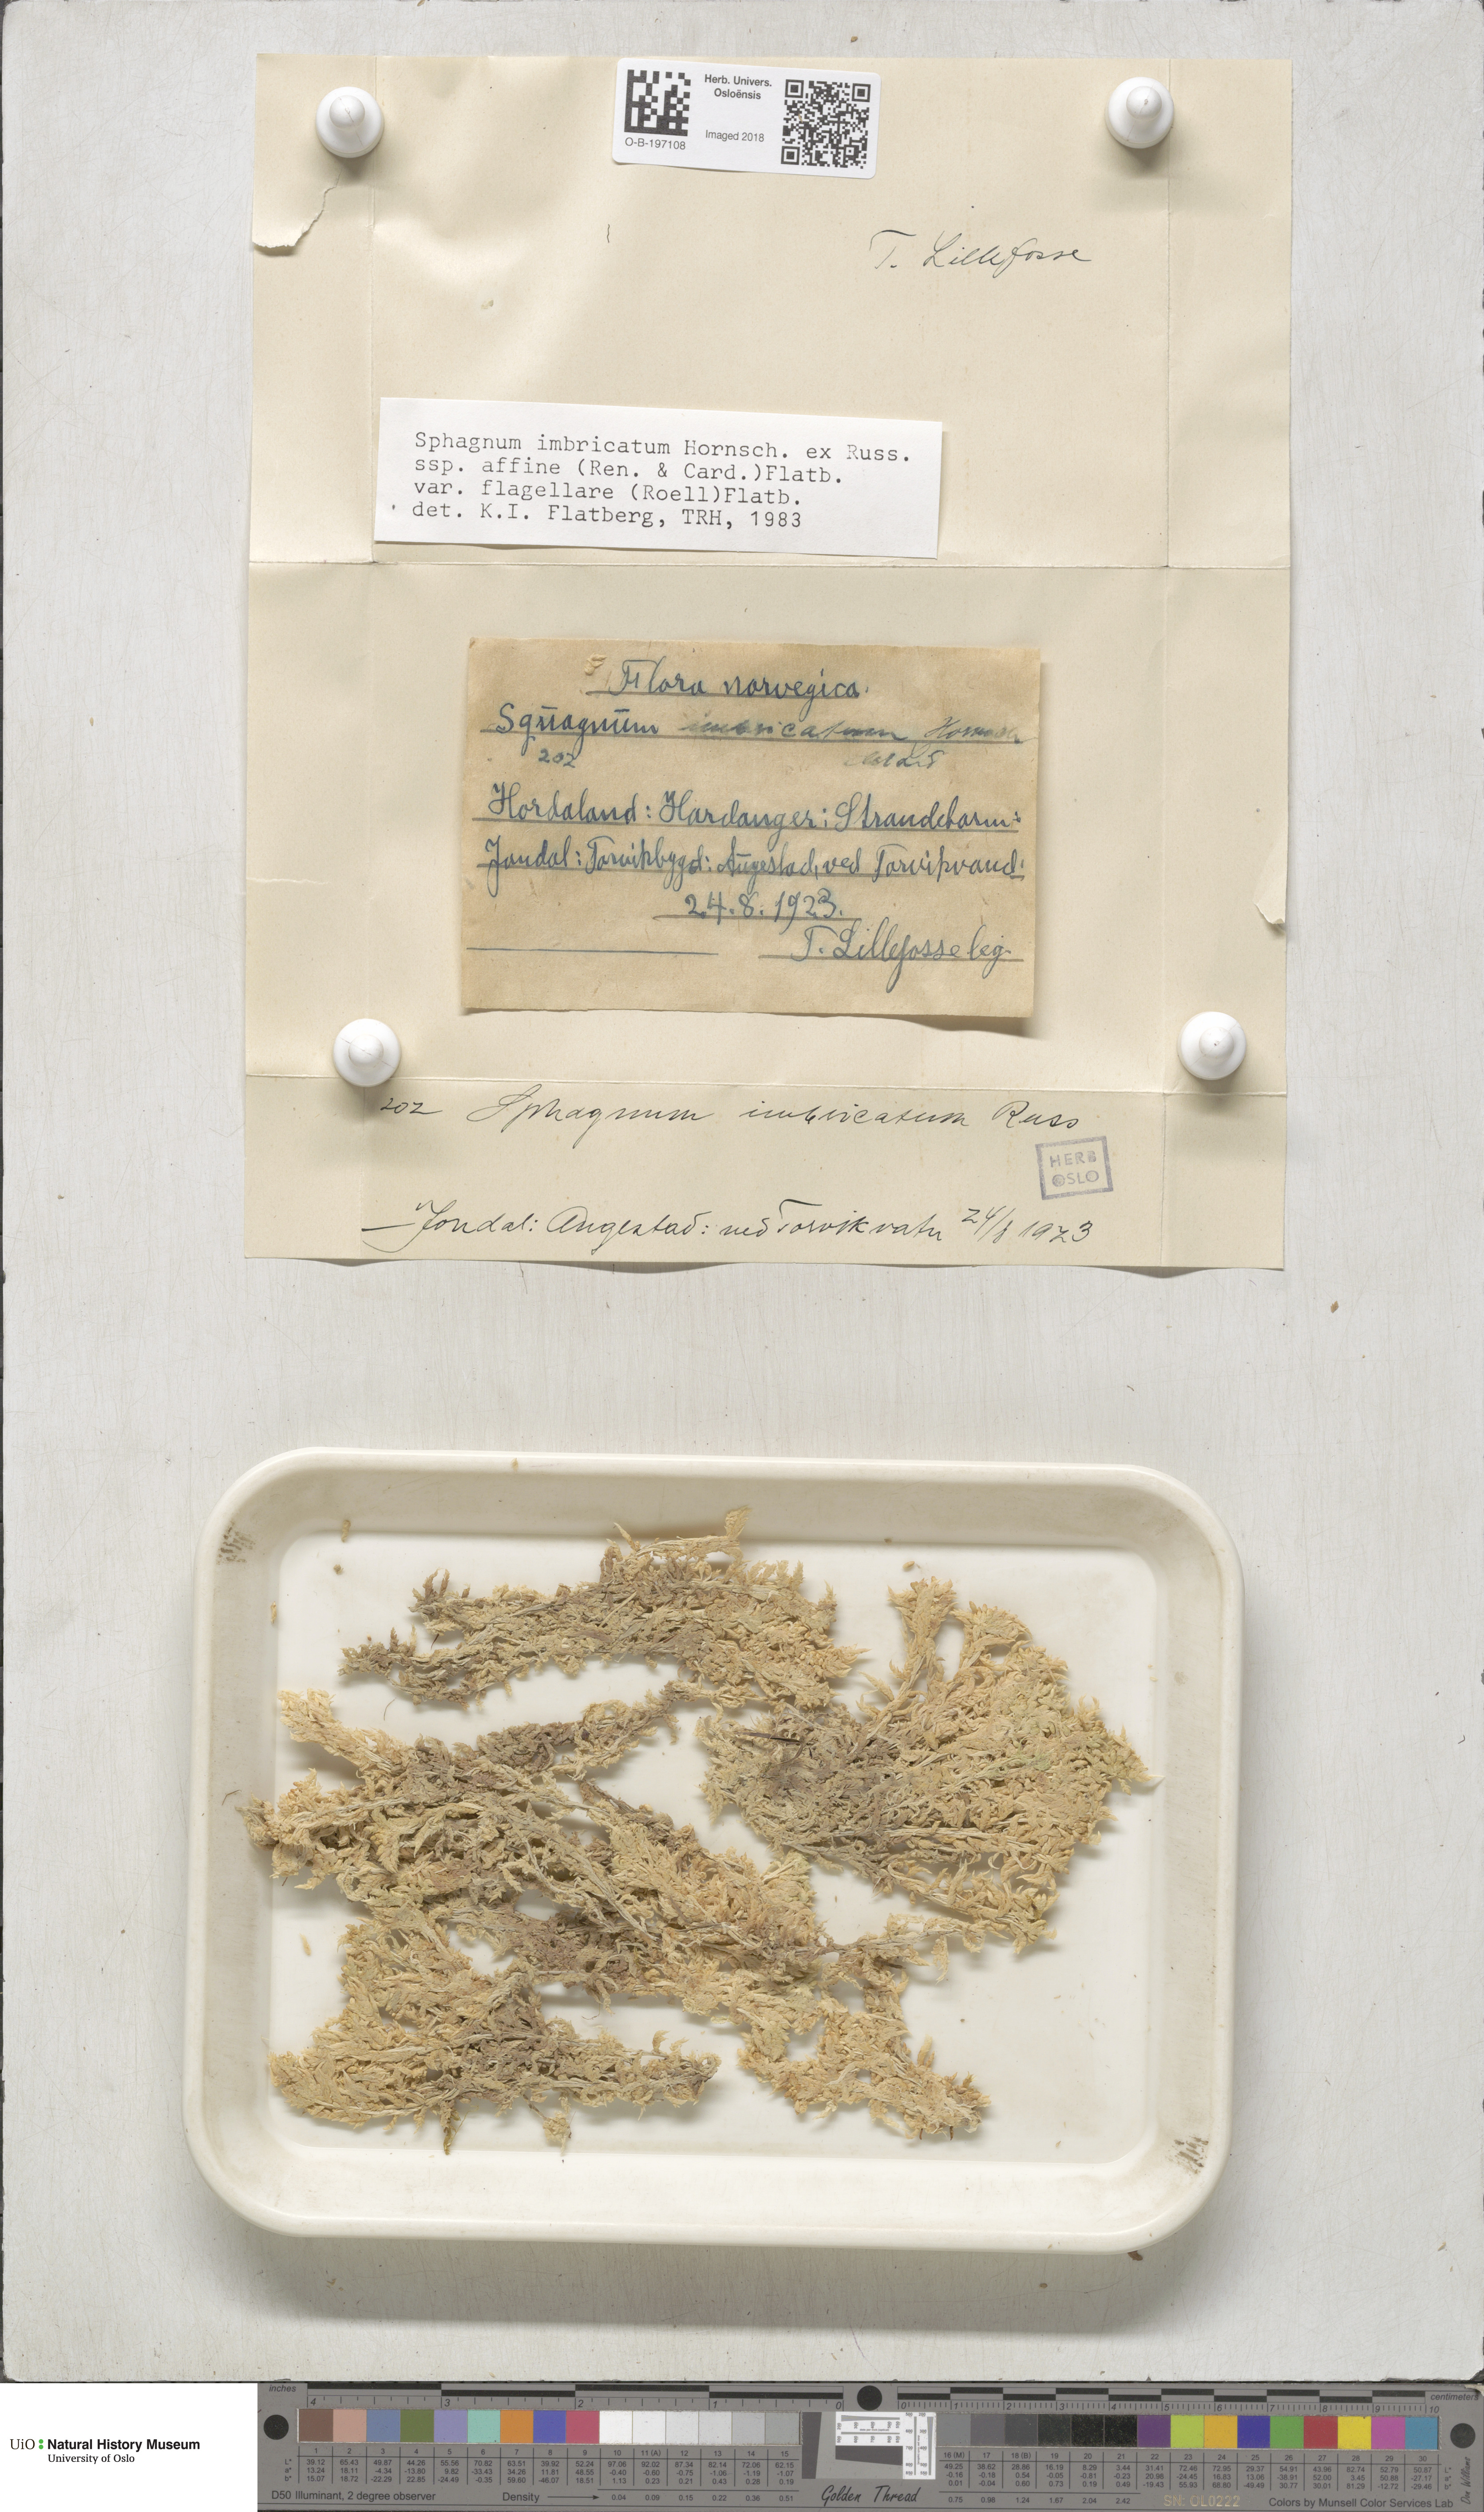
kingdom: Plantae
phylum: Bryophyta
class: Sphagnopsida
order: Sphagnales
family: Sphagnaceae
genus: Sphagnum
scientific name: Sphagnum affine
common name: Imbricate peat moss
